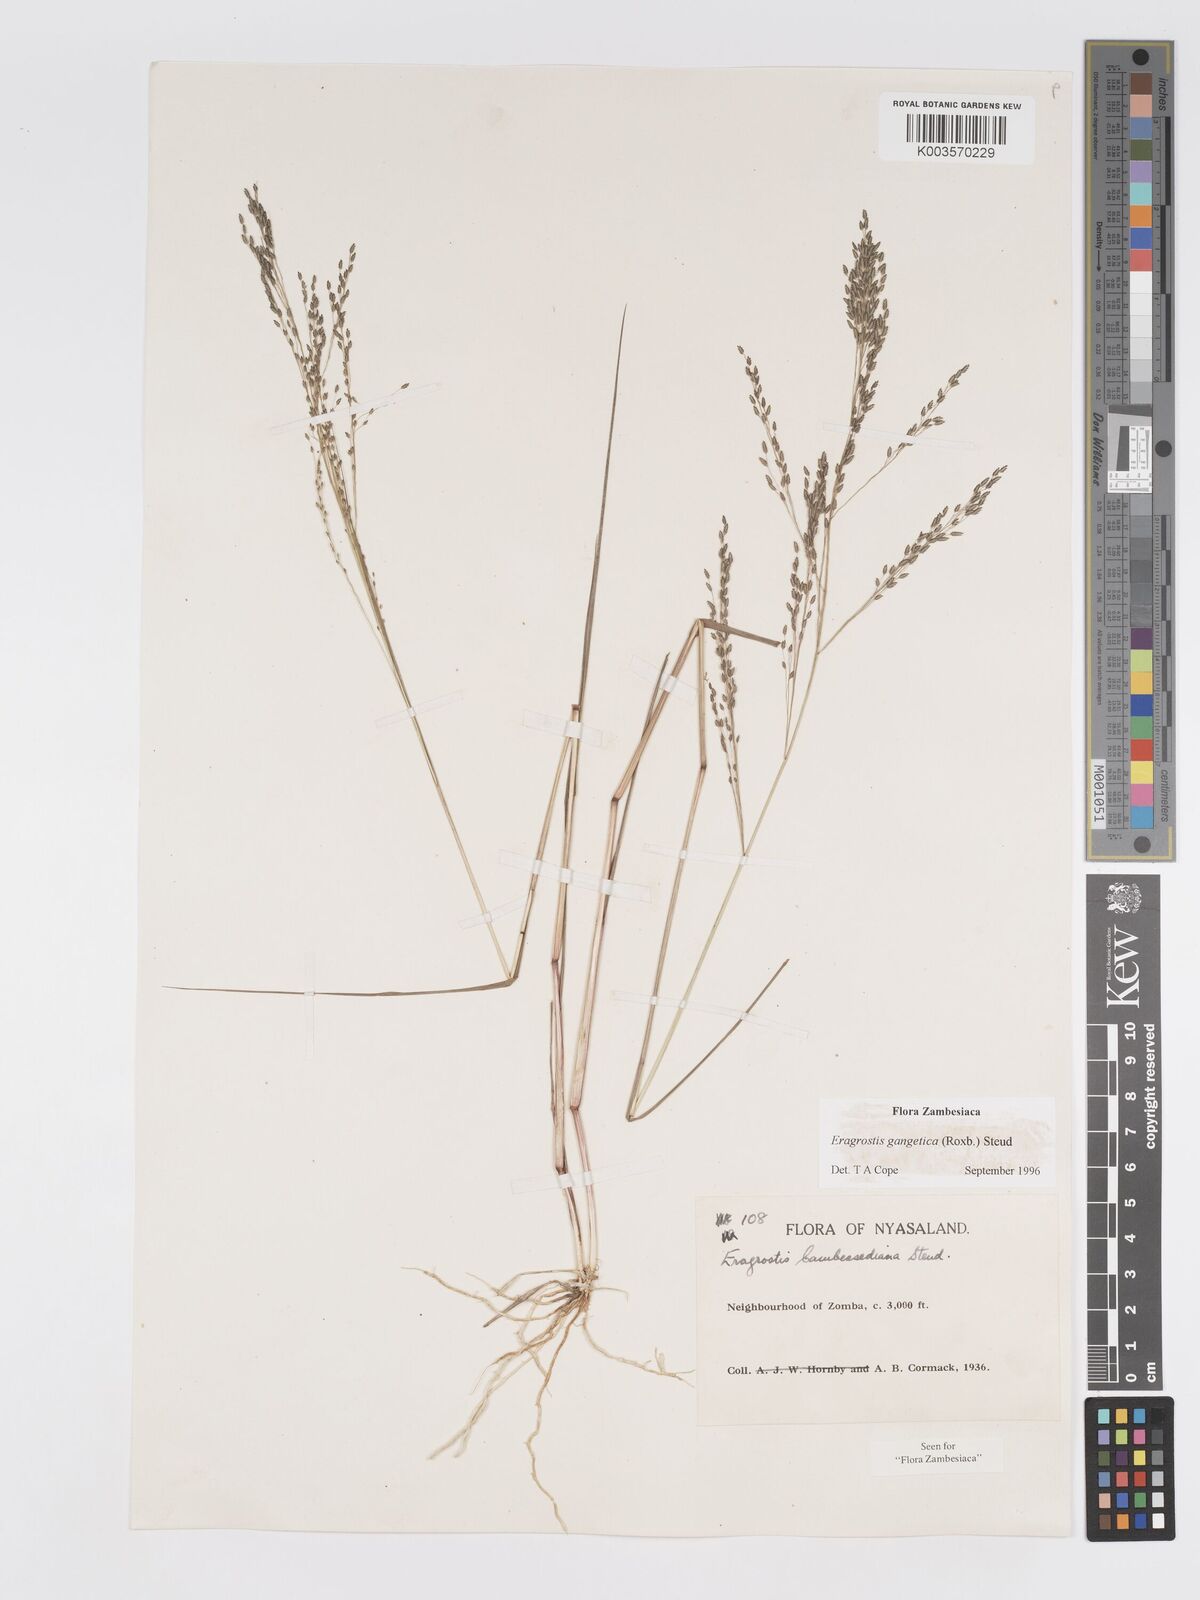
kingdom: Plantae
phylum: Tracheophyta
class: Liliopsida
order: Poales
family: Poaceae
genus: Eragrostis
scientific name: Eragrostis gangetica
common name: Slimflower lovegrass
